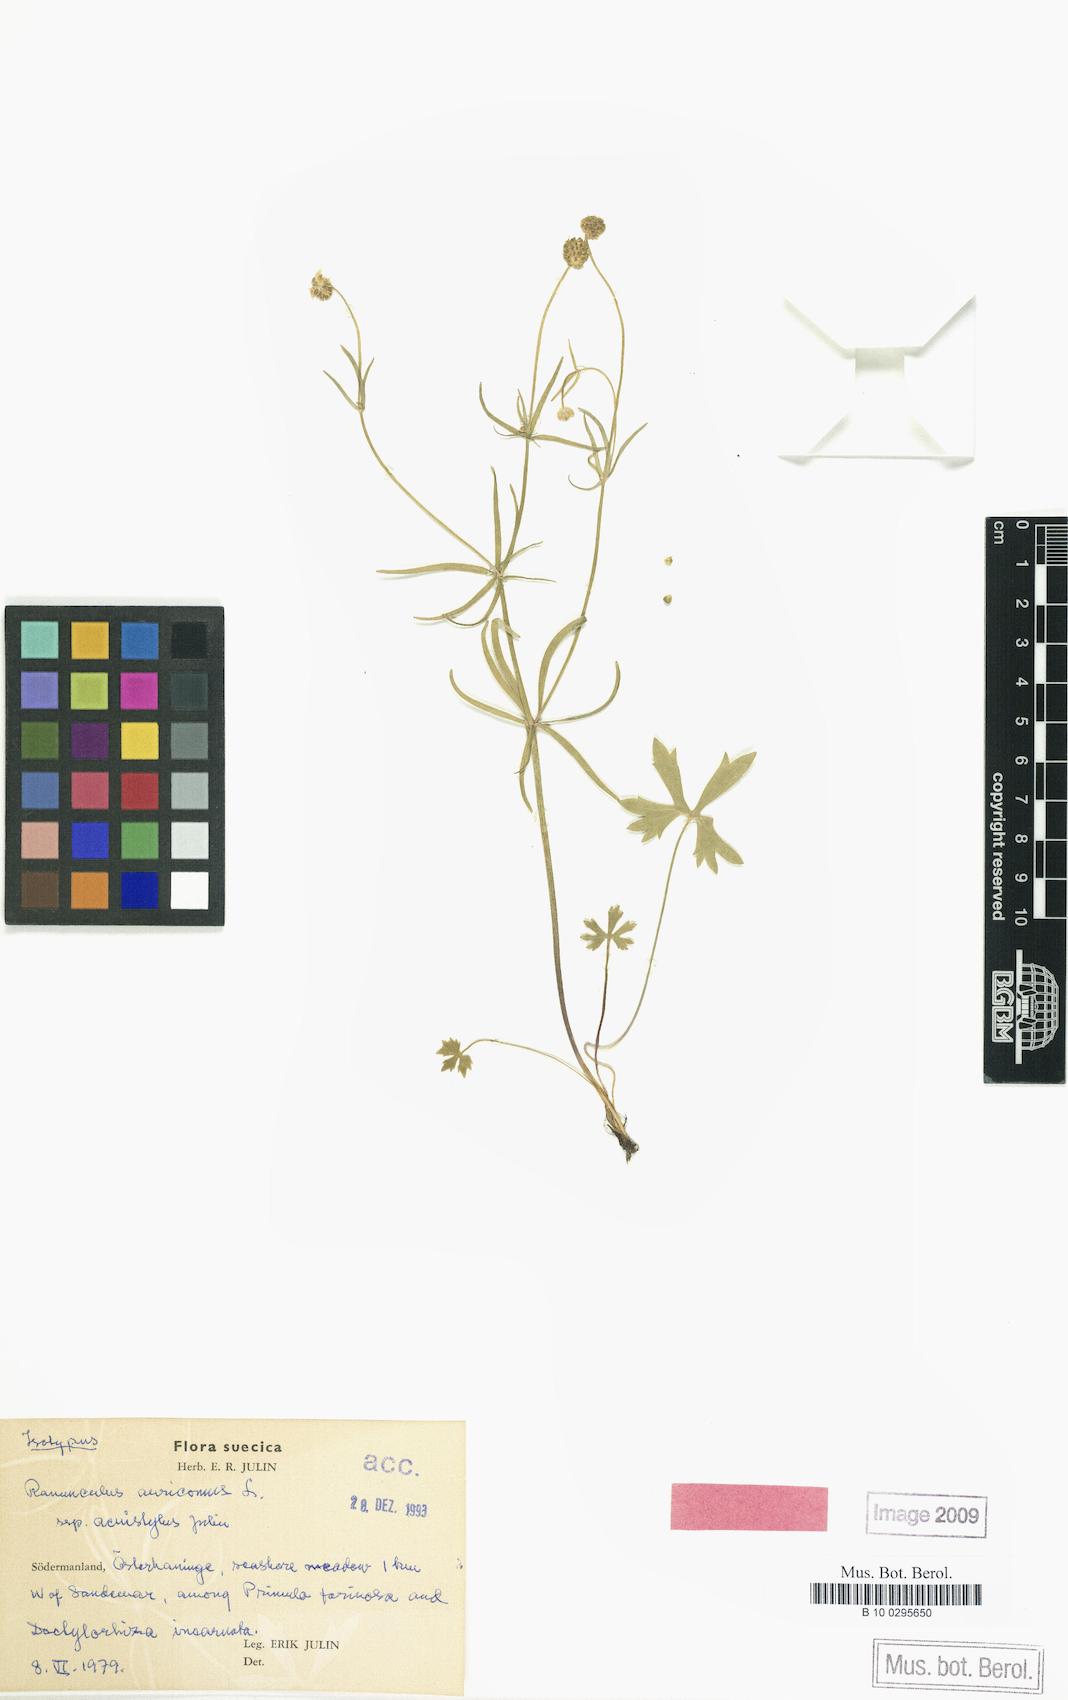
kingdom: Plantae
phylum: Tracheophyta
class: Magnoliopsida
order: Ranunculales
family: Ranunculaceae
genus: Ranunculus
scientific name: Ranunculus acuistylus
